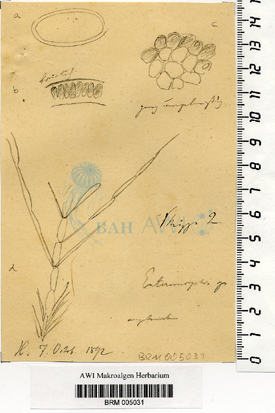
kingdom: Plantae
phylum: Chlorophyta
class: Ulvophyceae
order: Ulvales
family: Ulvaceae
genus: Ulva
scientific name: Ulva
